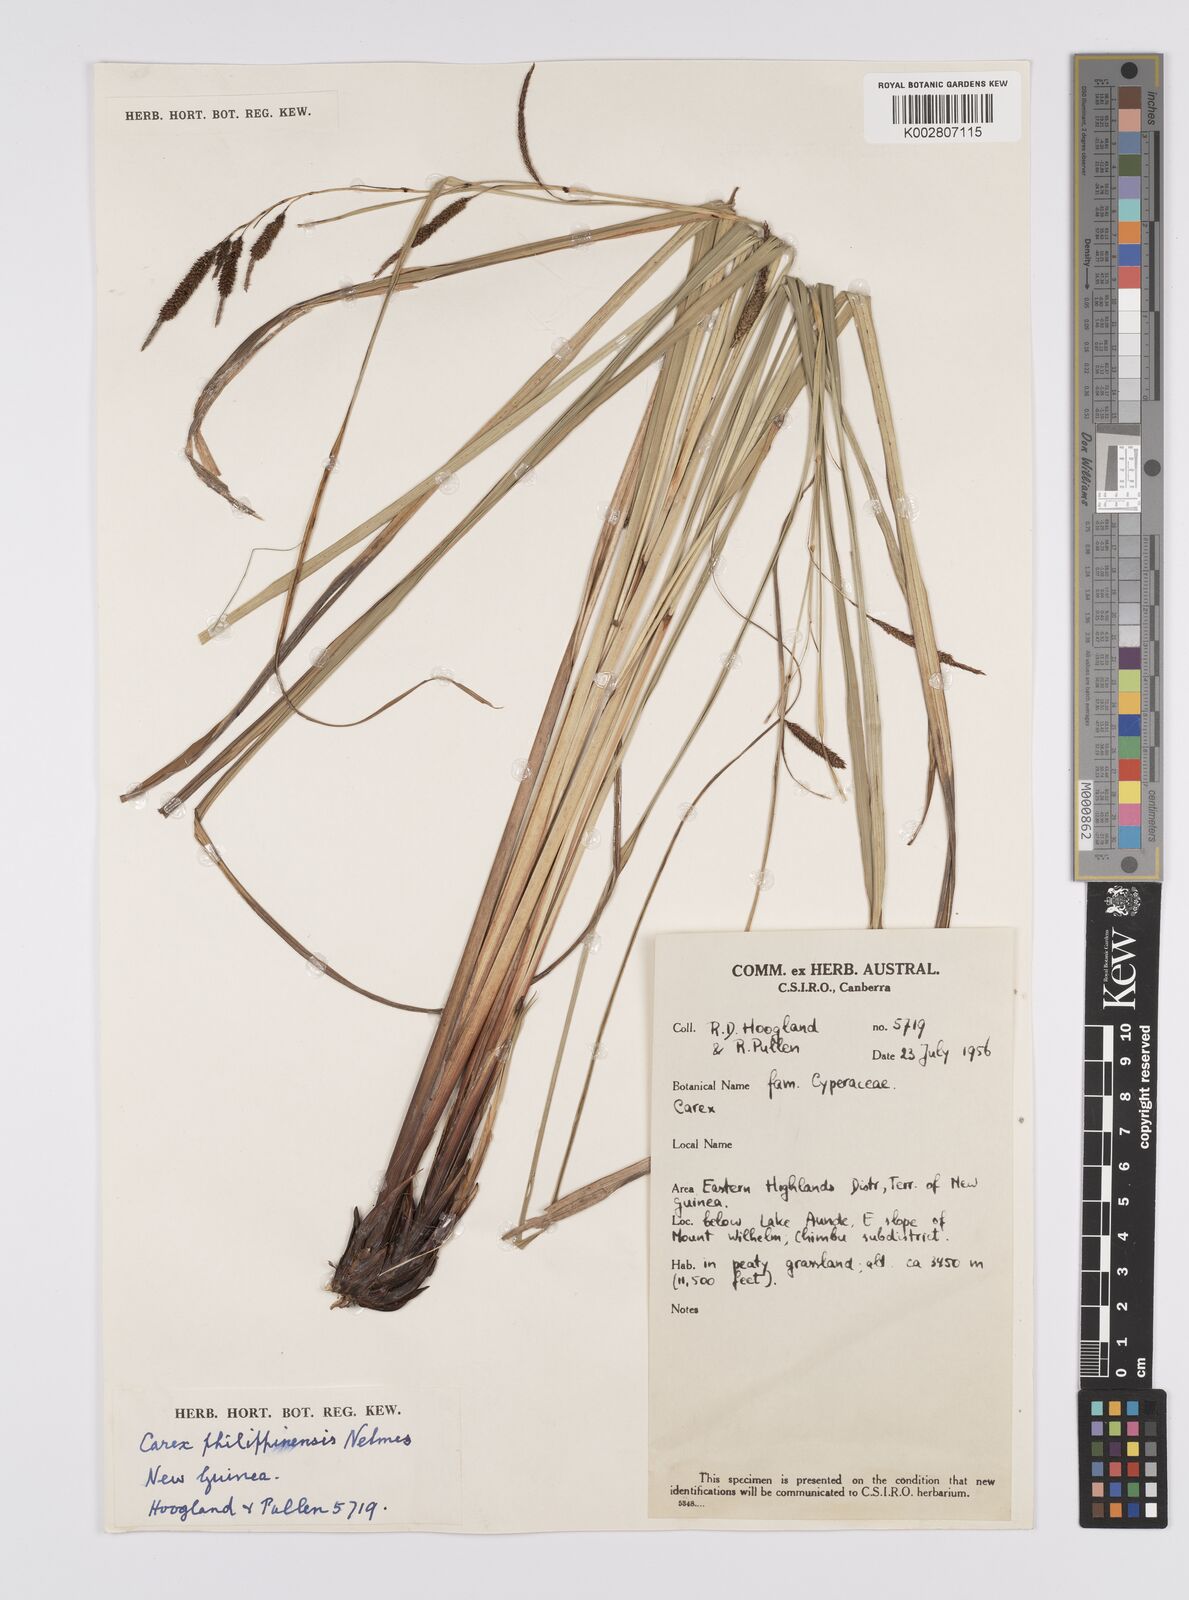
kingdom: Plantae
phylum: Tracheophyta
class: Liliopsida
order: Poales
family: Cyperaceae
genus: Carex
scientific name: Carex graeffeana
